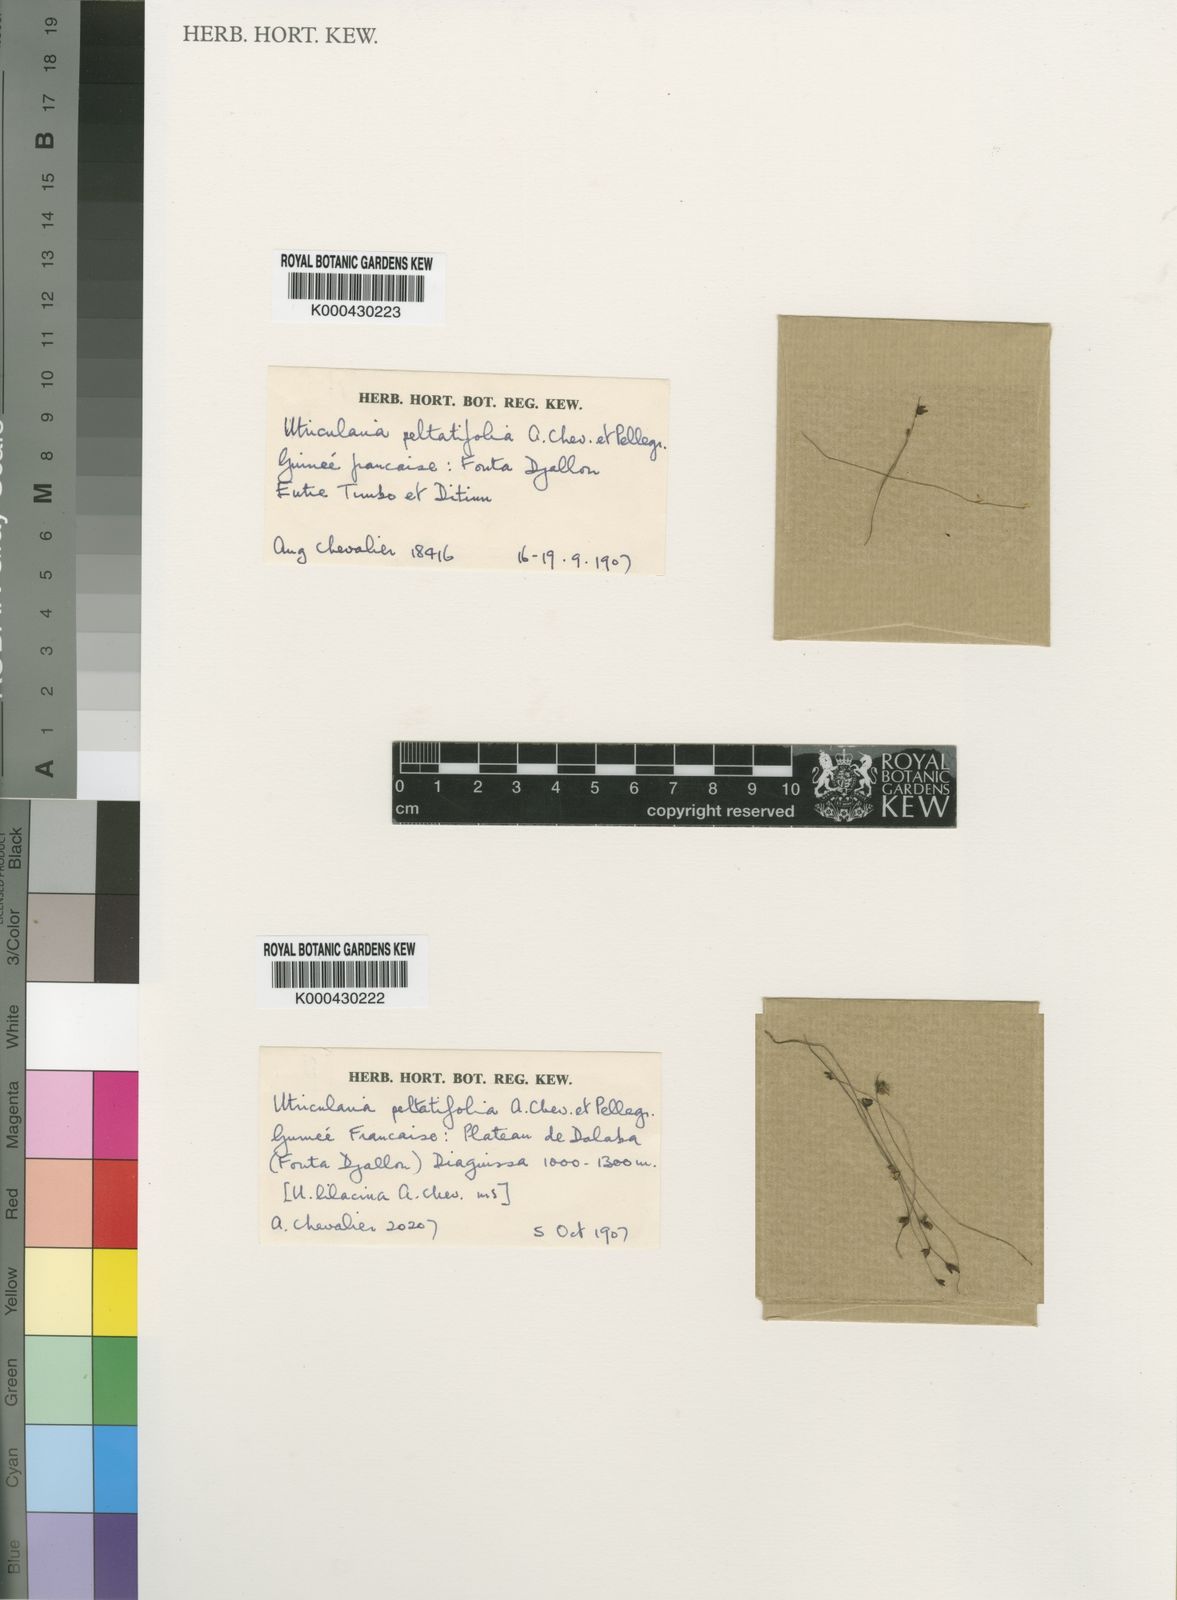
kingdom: Plantae
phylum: Tracheophyta
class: Magnoliopsida
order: Lamiales
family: Lentibulariaceae
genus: Utricularia
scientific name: Utricularia pubescens
